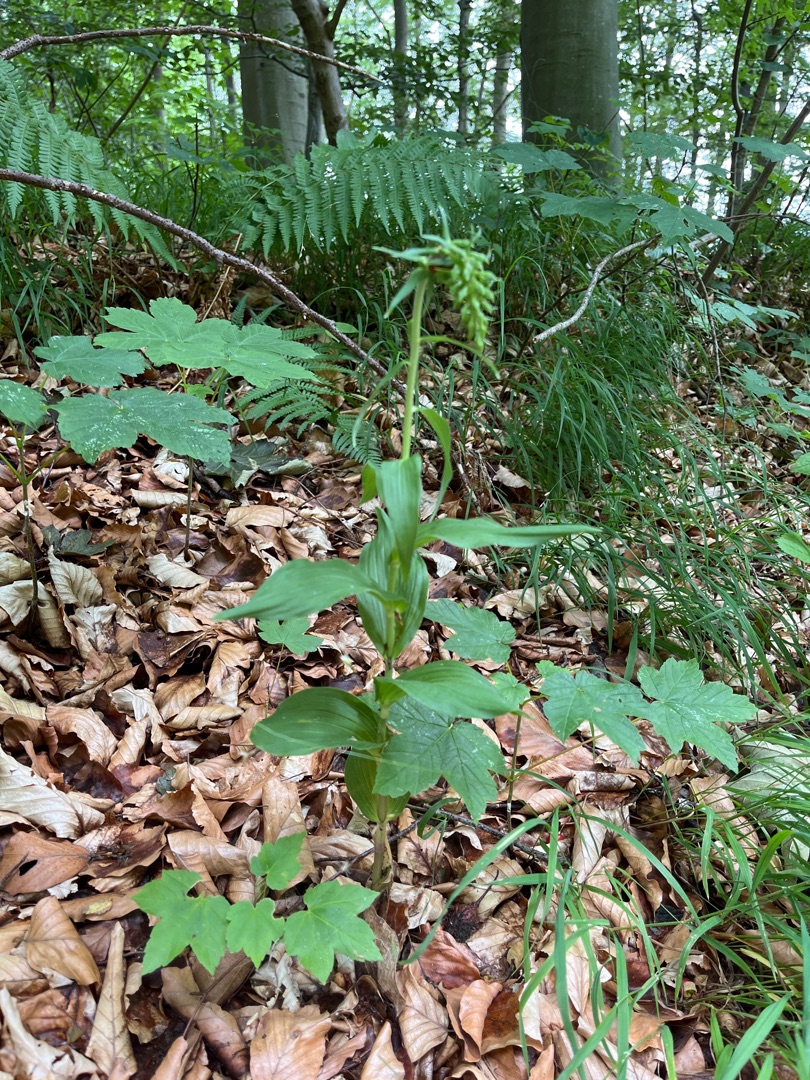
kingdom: Plantae
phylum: Tracheophyta
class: Liliopsida
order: Asparagales
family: Orchidaceae
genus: Epipactis
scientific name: Epipactis helleborine
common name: Skov-hullæbe
